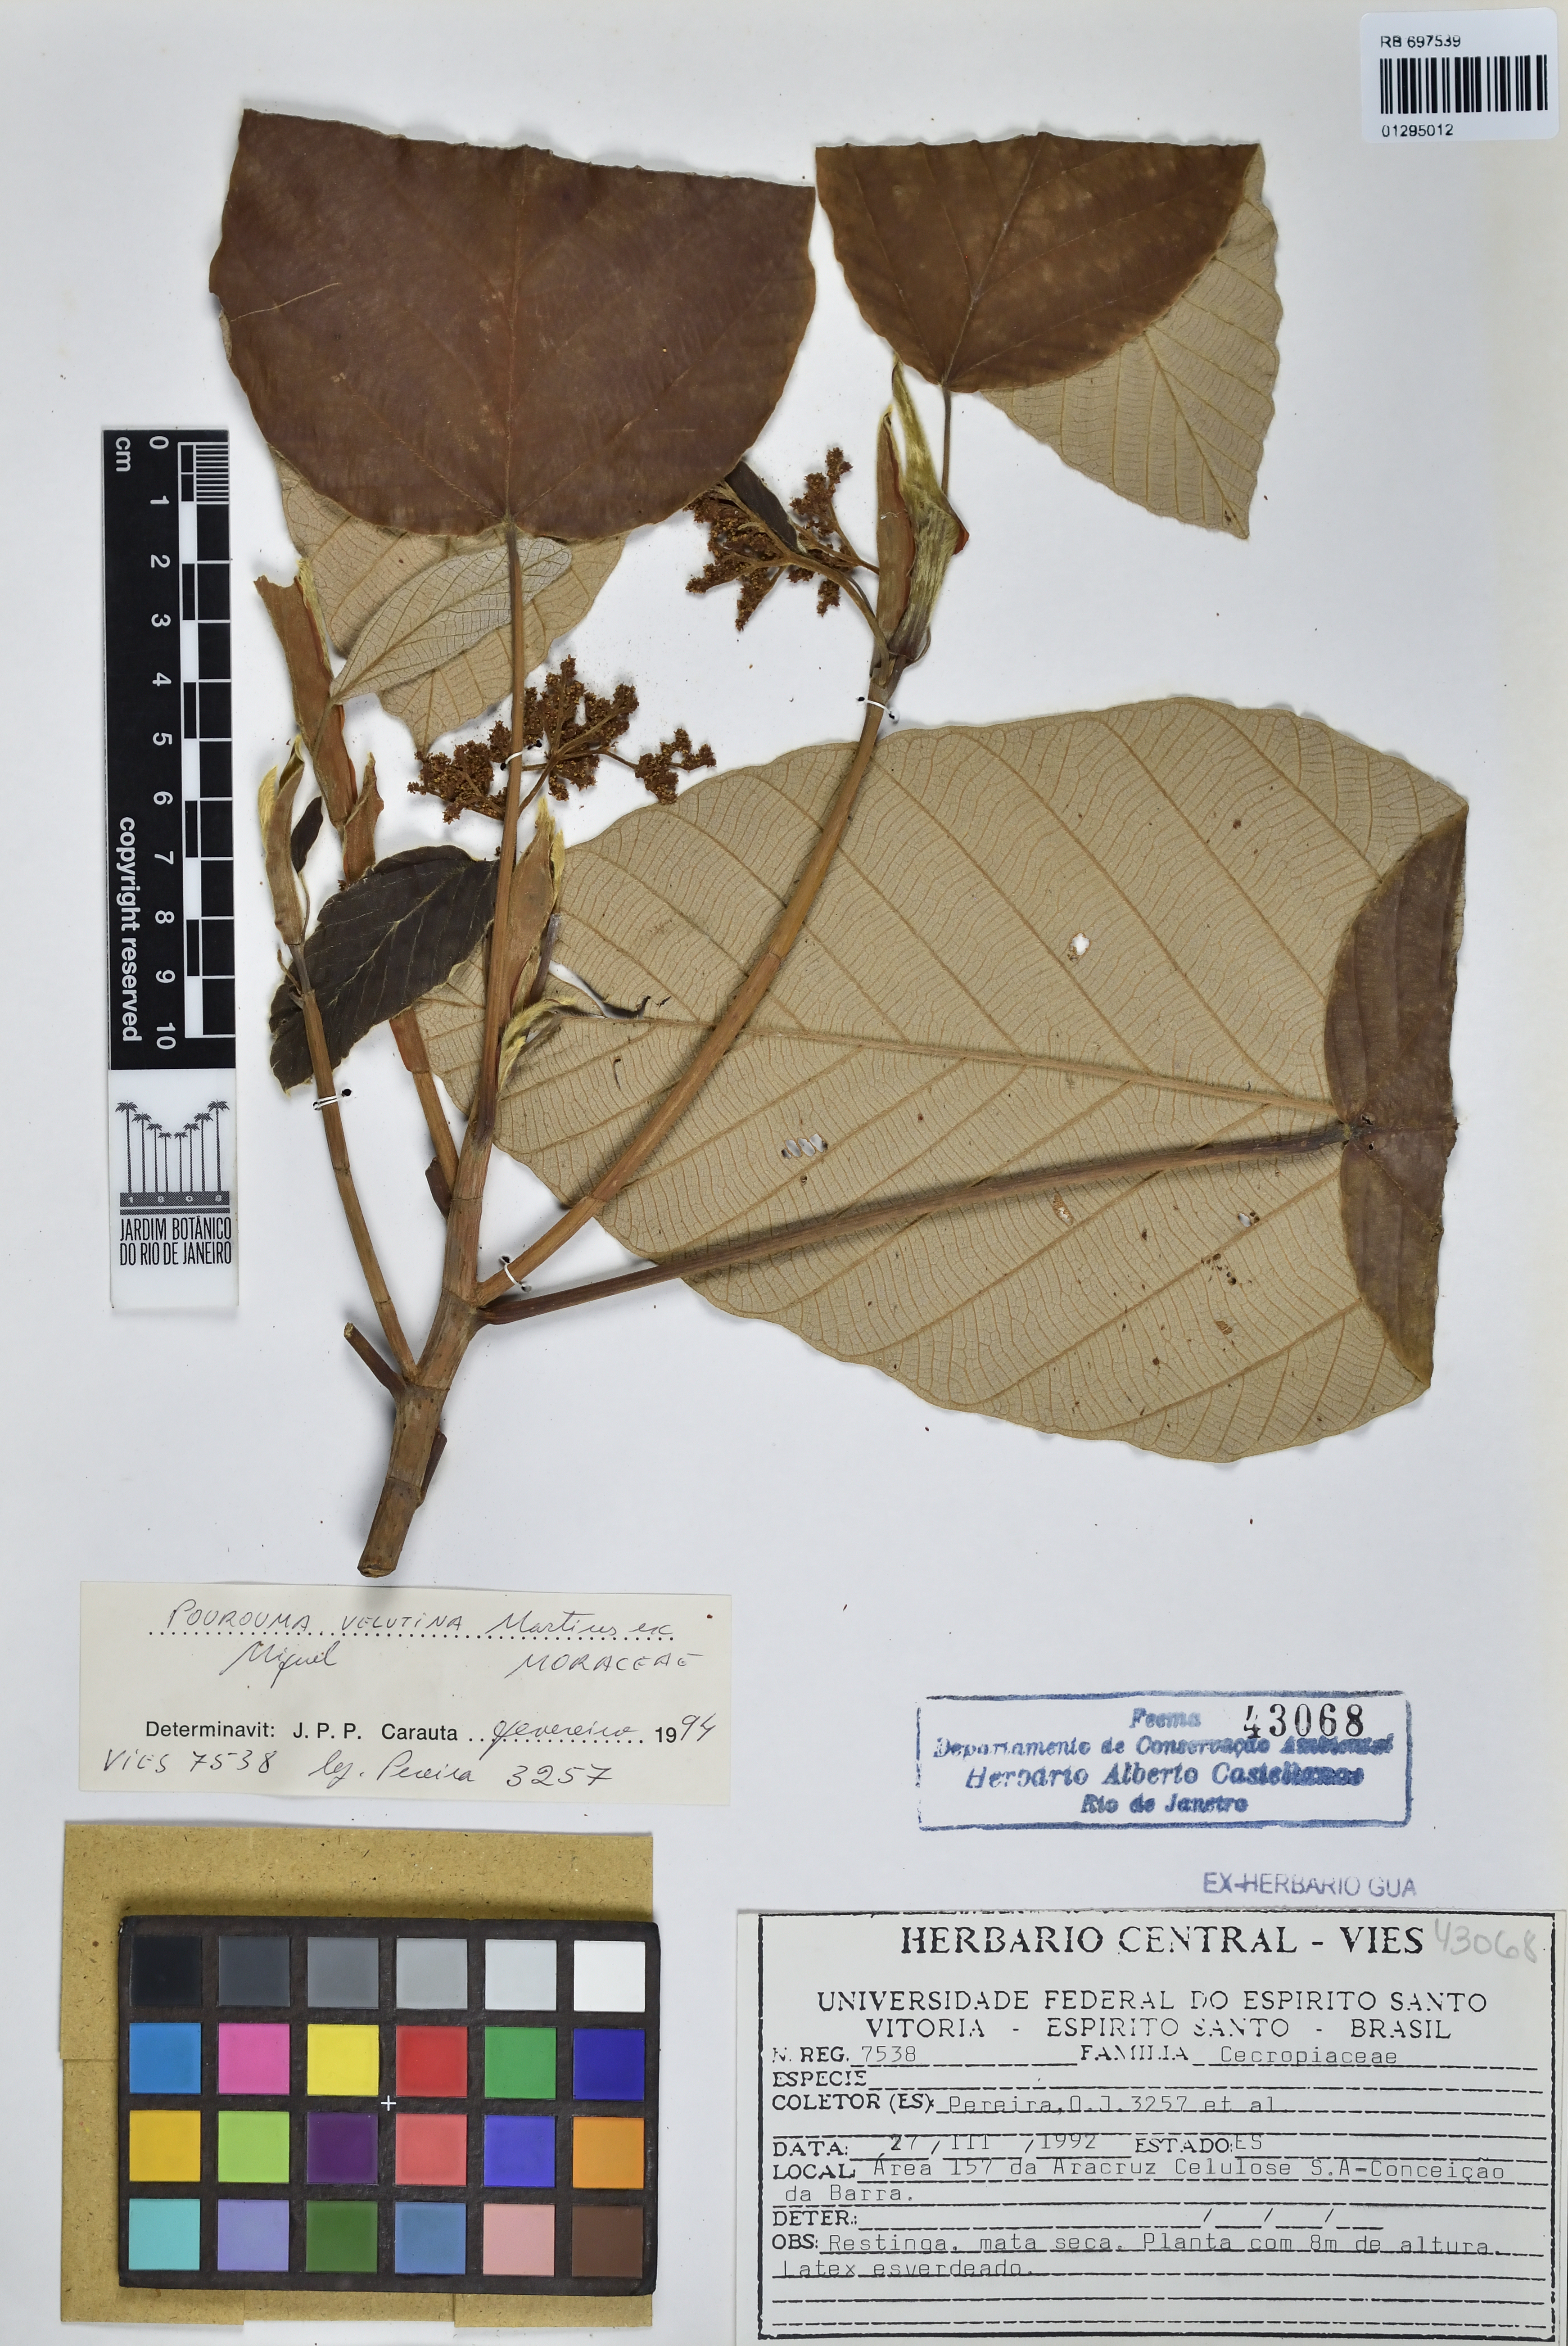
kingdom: Plantae
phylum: Tracheophyta
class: Magnoliopsida
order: Rosales
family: Urticaceae
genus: Pourouma
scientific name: Pourouma velutina
